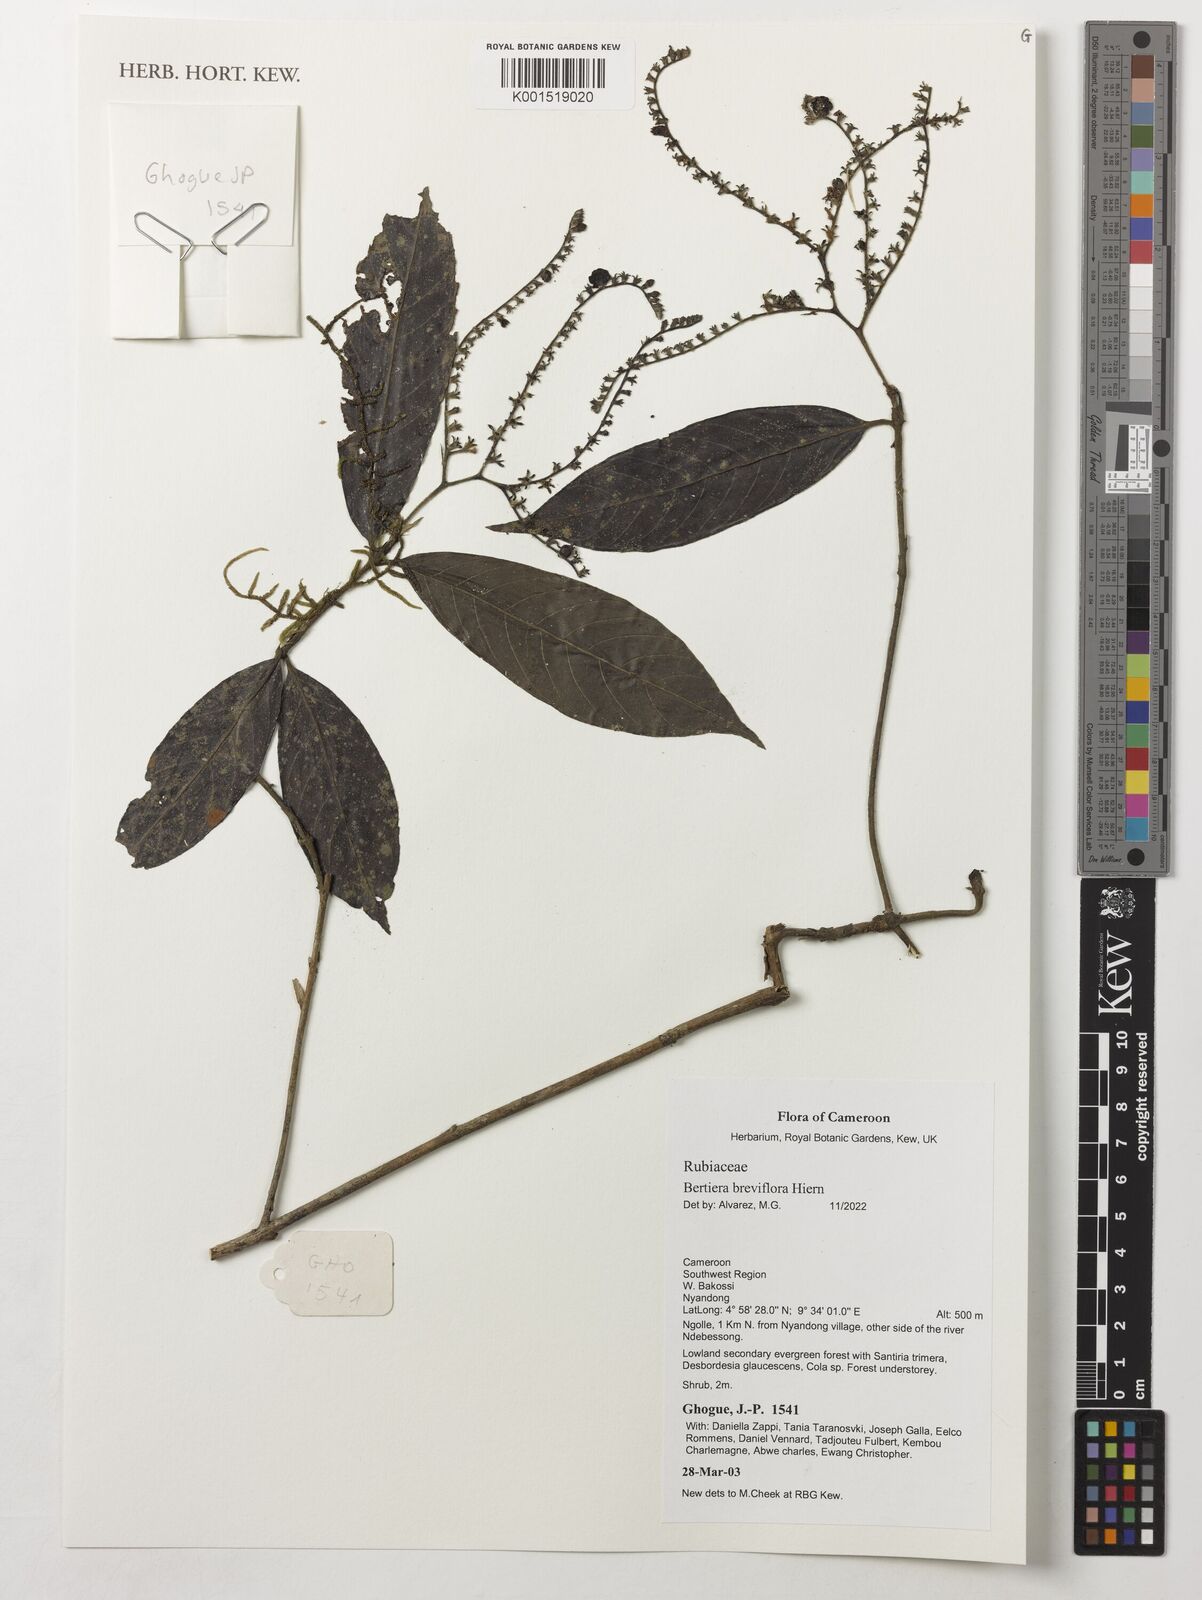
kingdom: Plantae
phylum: Tracheophyta
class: Magnoliopsida
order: Gentianales
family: Rubiaceae
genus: Bertiera
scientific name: Bertiera breviflora
